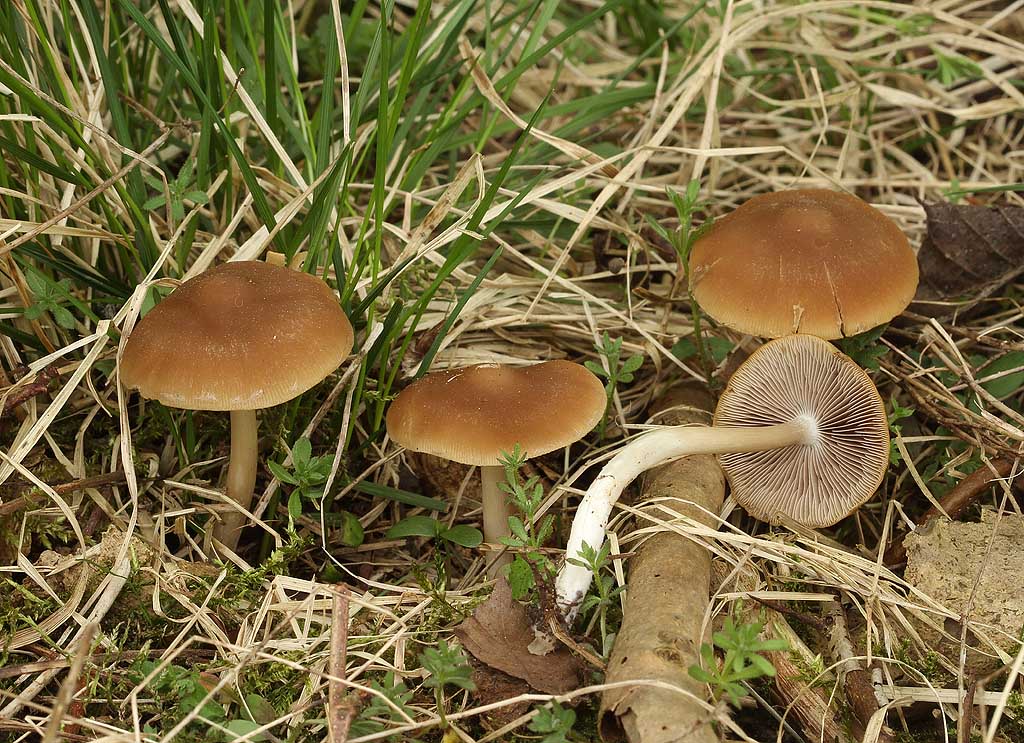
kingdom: Fungi
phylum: Basidiomycota
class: Agaricomycetes
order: Agaricales
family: Psathyrellaceae
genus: Psathyrella
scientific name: Psathyrella spadiceogrisea
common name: gråbrun mørkhat
